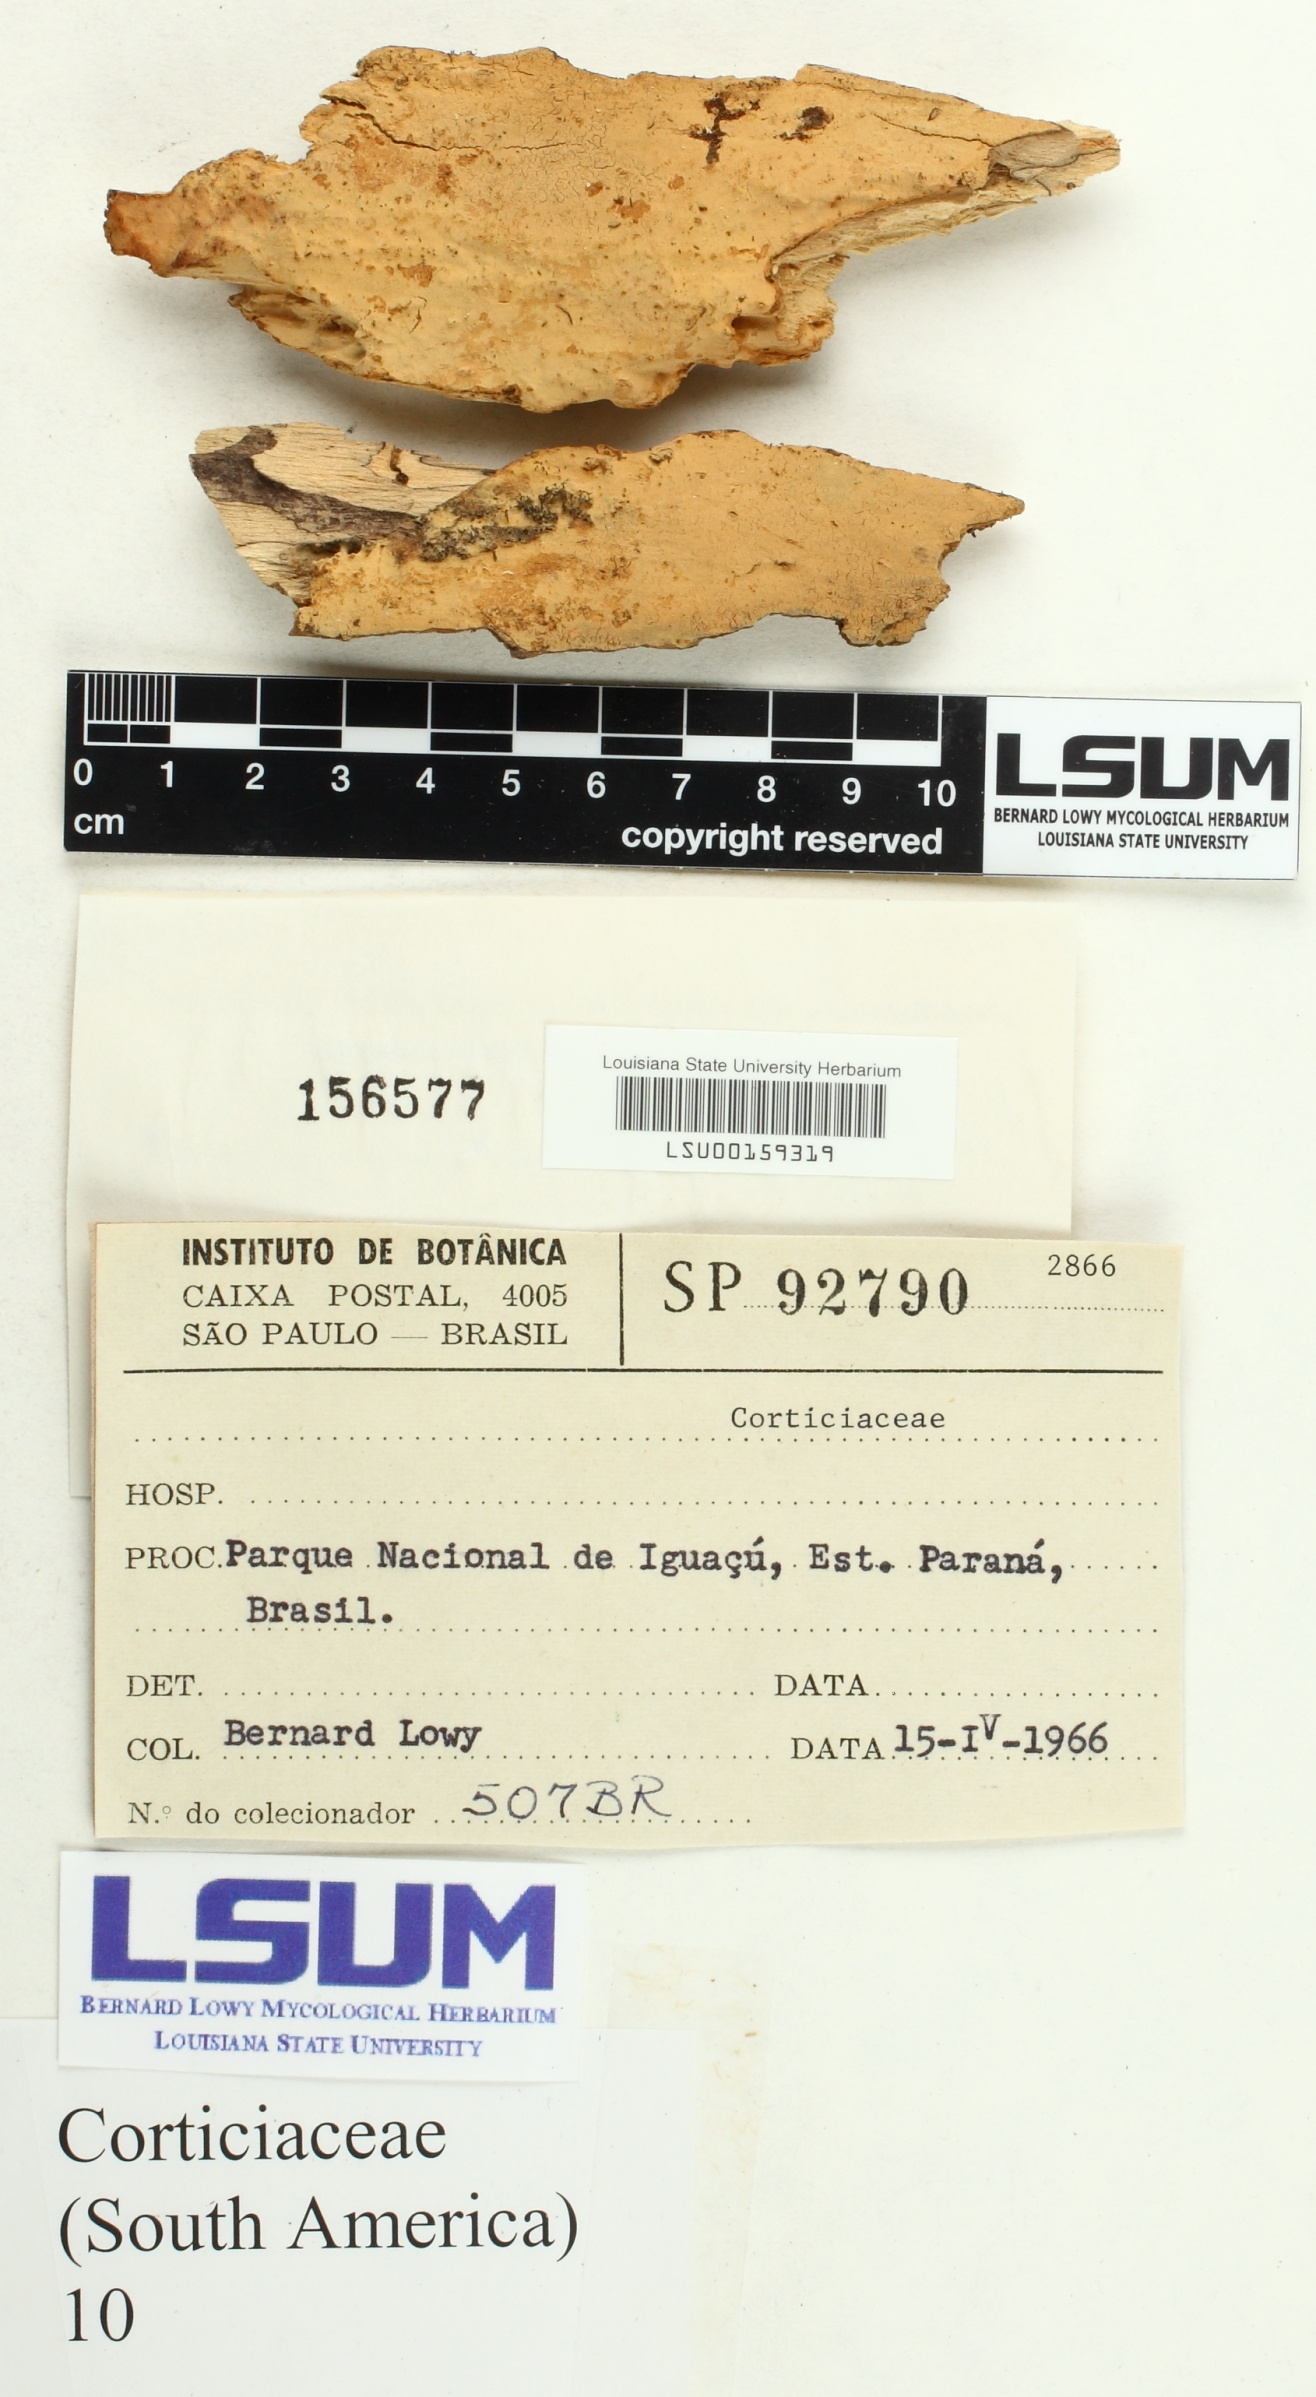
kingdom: Fungi
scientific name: Fungi
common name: Fungi
